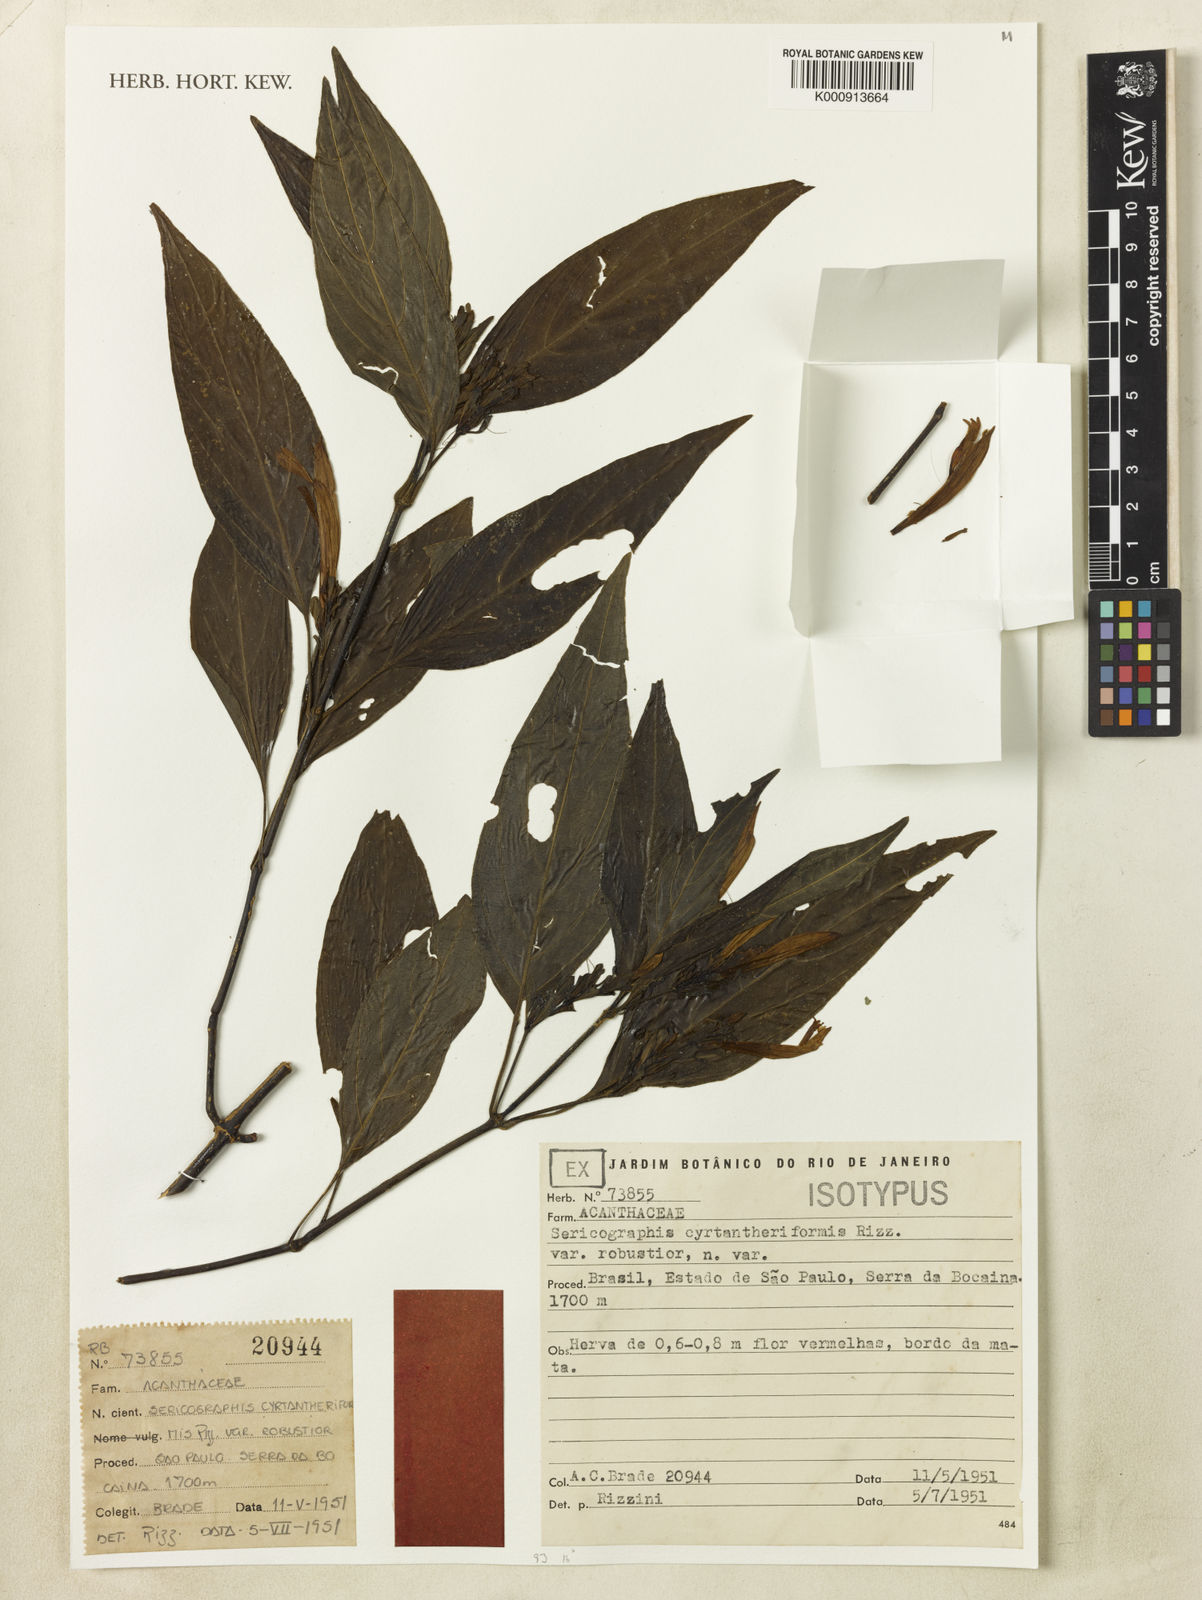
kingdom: Plantae
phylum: Tracheophyta
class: Magnoliopsida
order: Lamiales
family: Acanthaceae
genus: Justicia
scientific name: Justicia cyrtantheriformis
